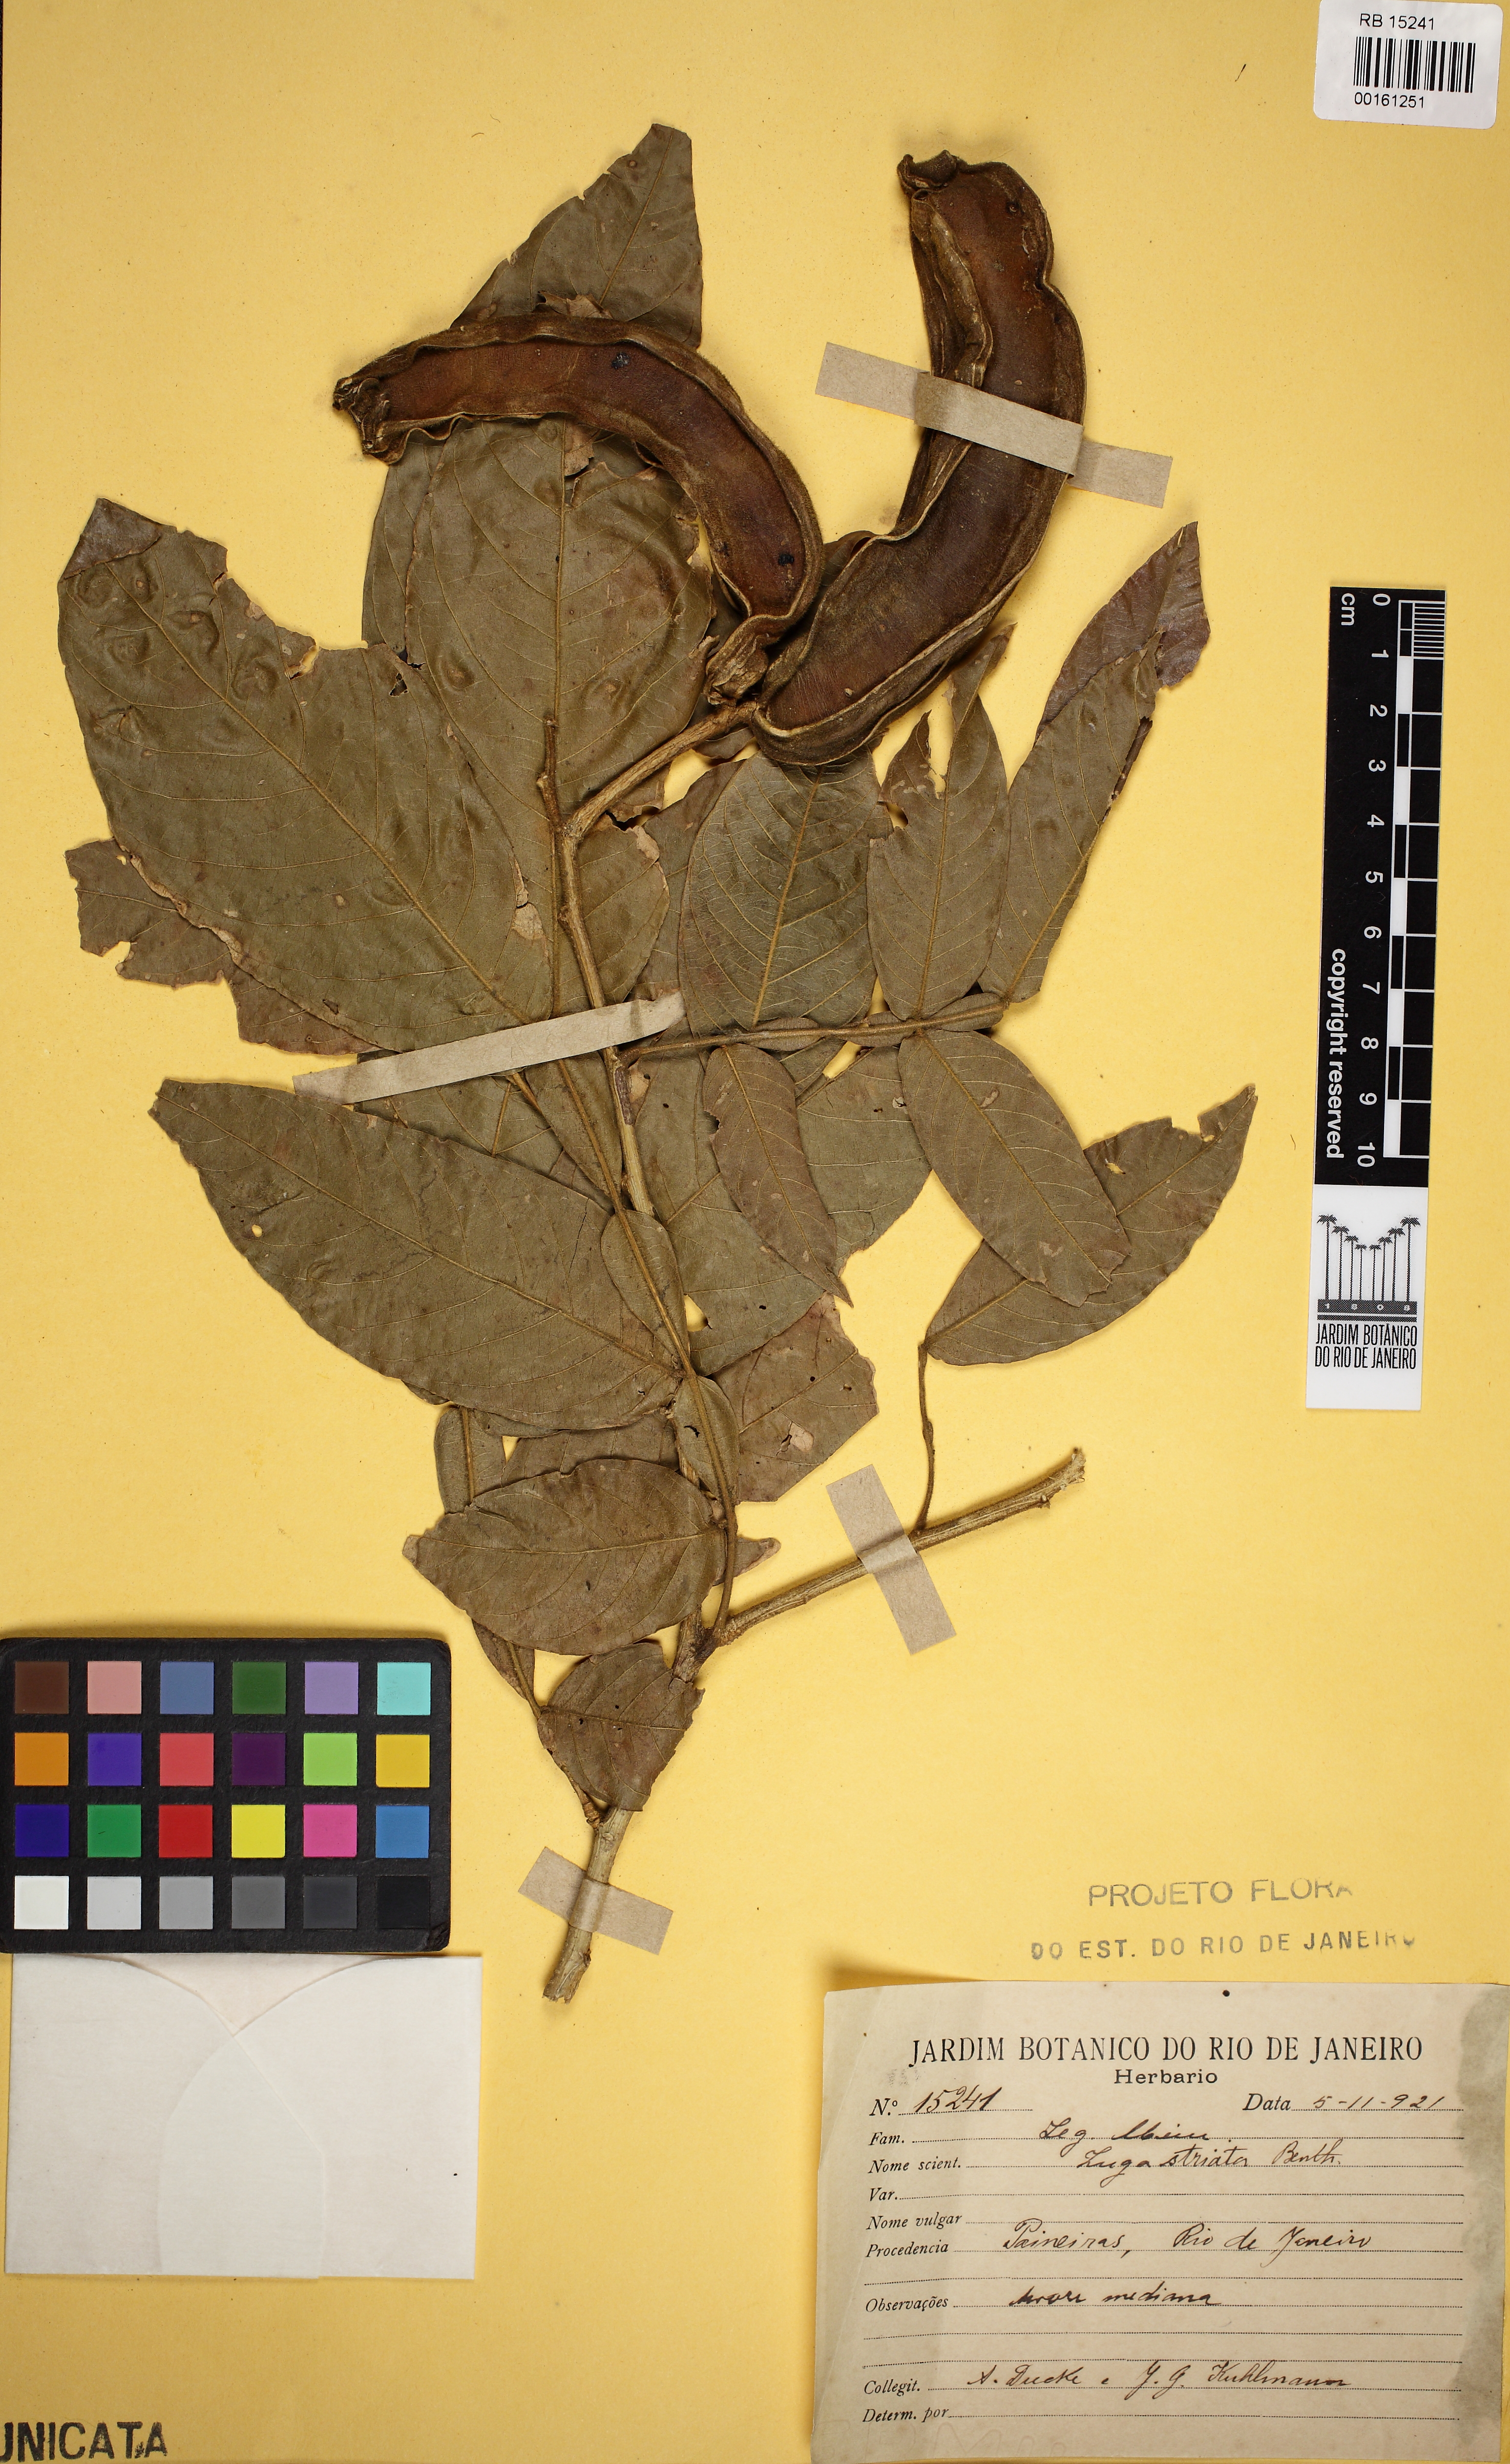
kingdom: Plantae
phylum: Tracheophyta
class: Magnoliopsida
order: Fabales
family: Fabaceae
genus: Inga
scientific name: Inga striata
